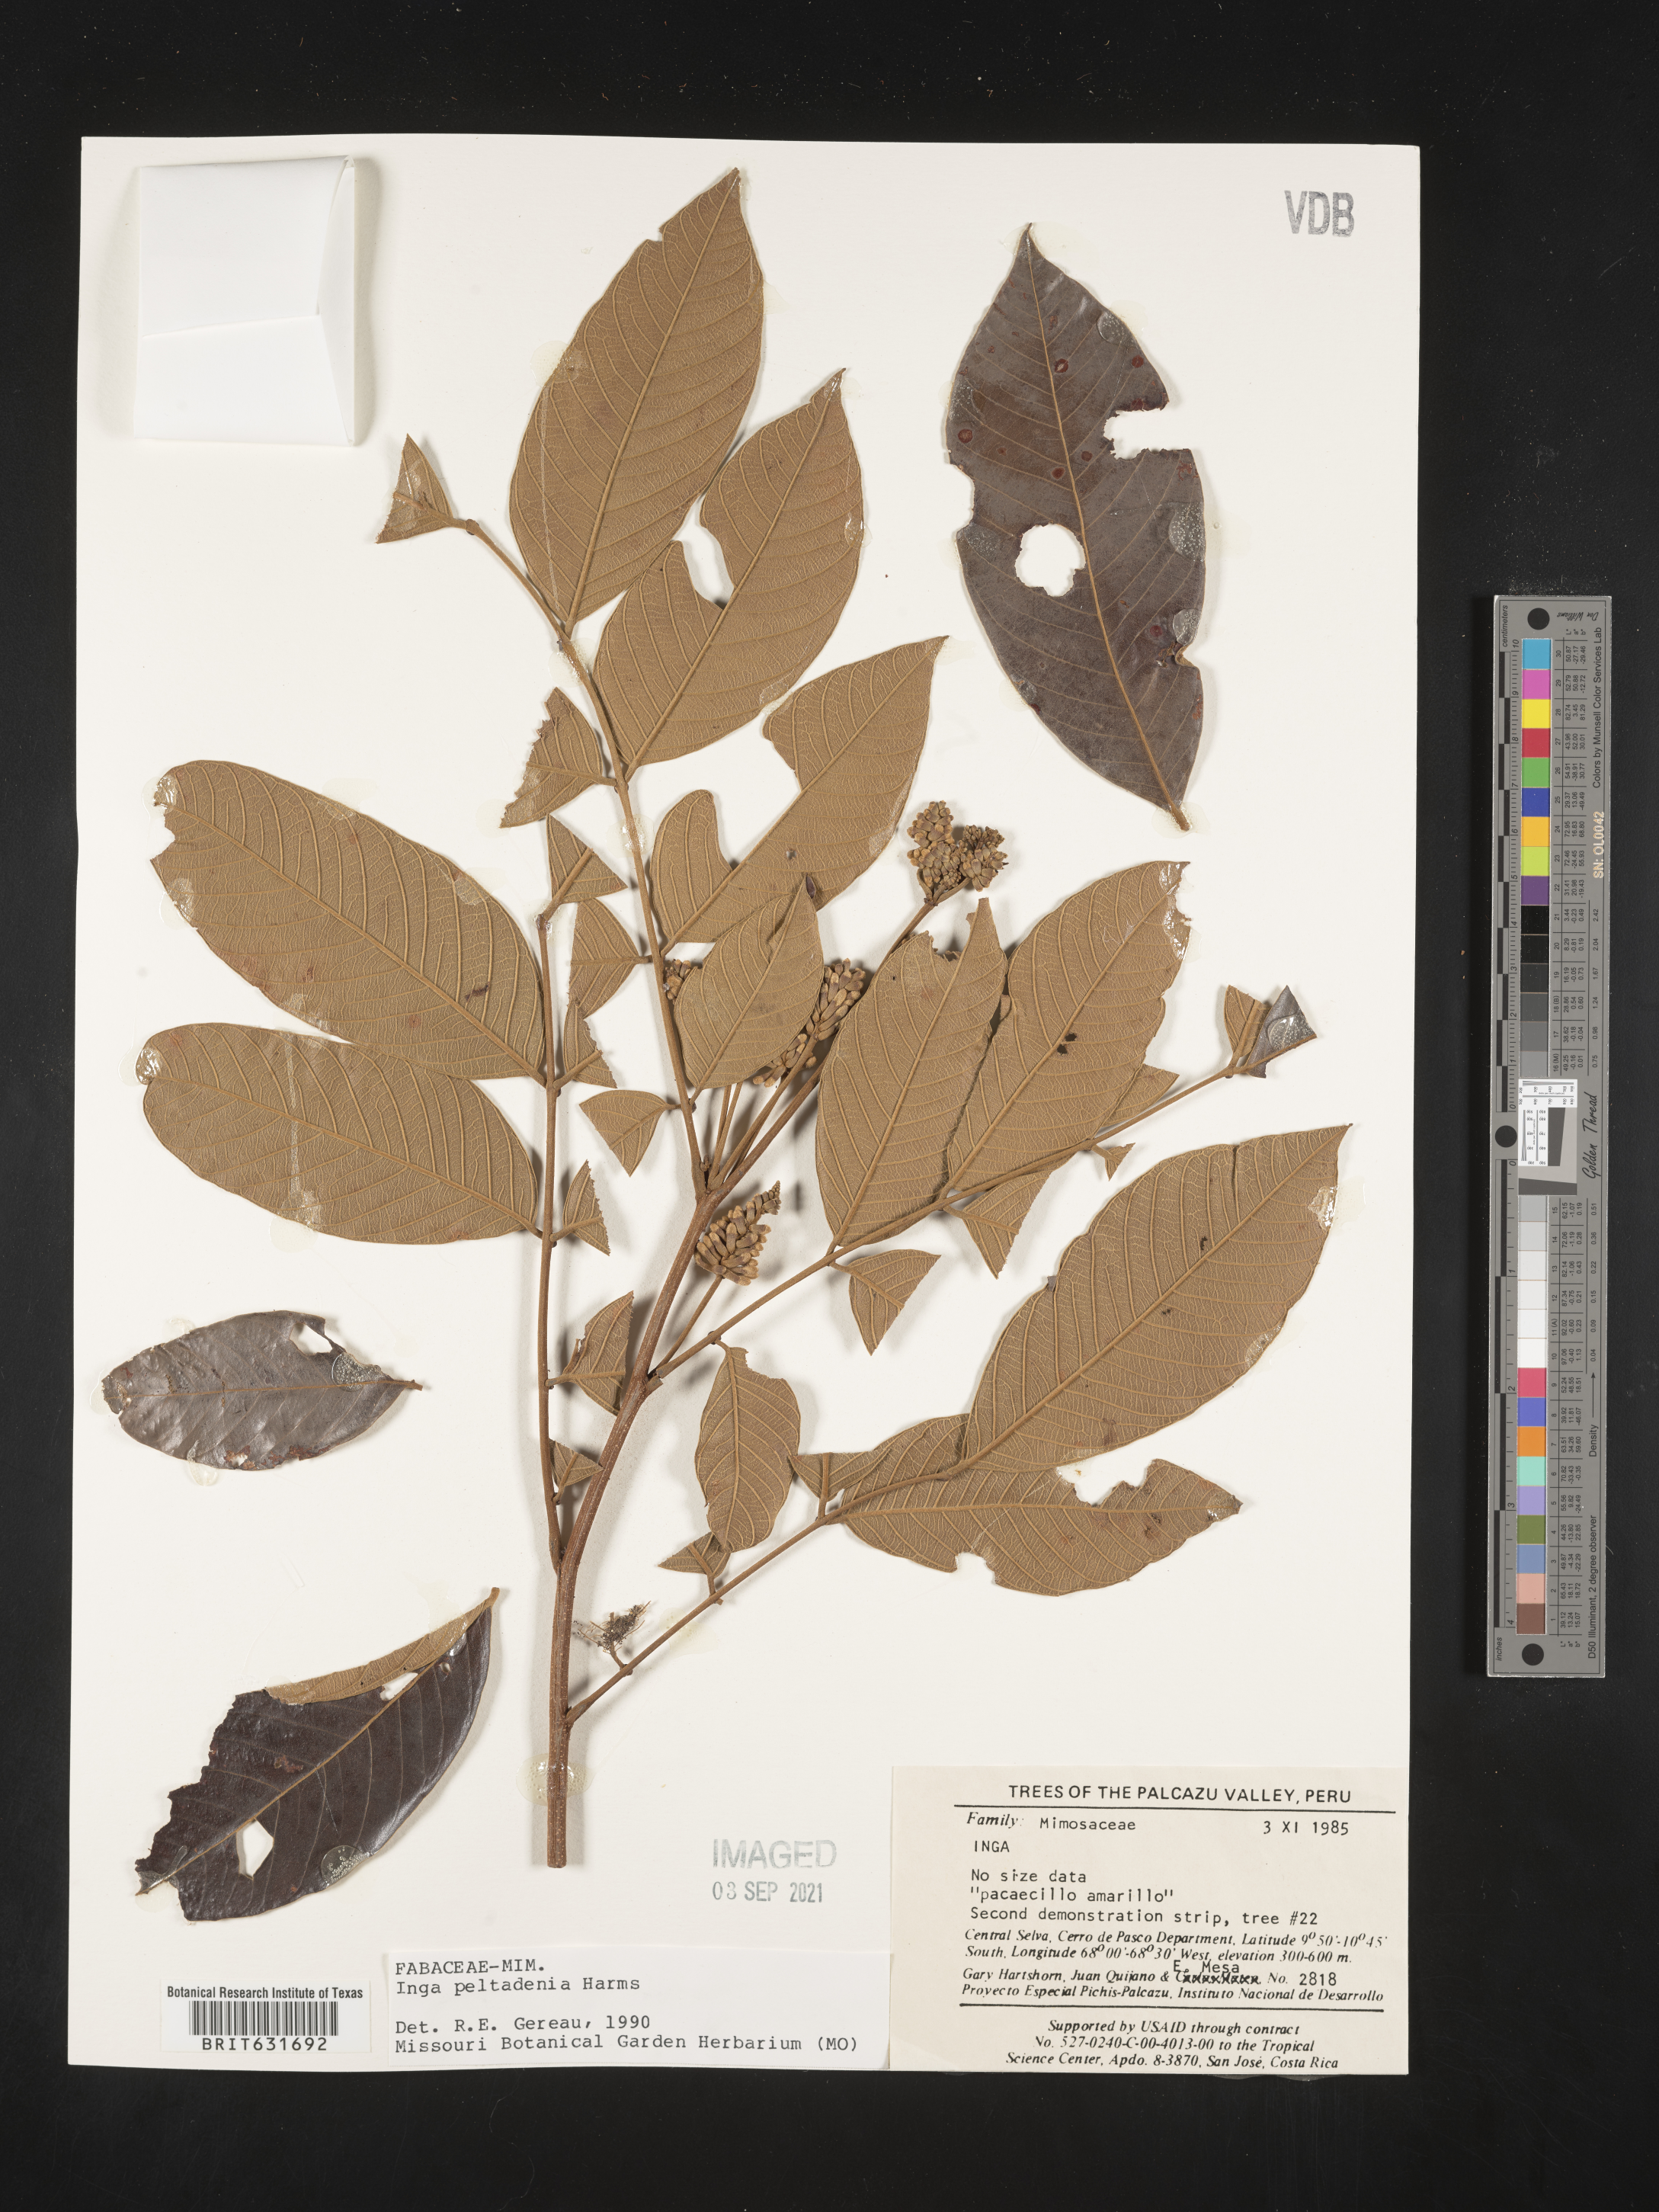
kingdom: Plantae
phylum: Tracheophyta
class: Magnoliopsida
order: Fabales
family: Fabaceae
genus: Inga
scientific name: Inga
